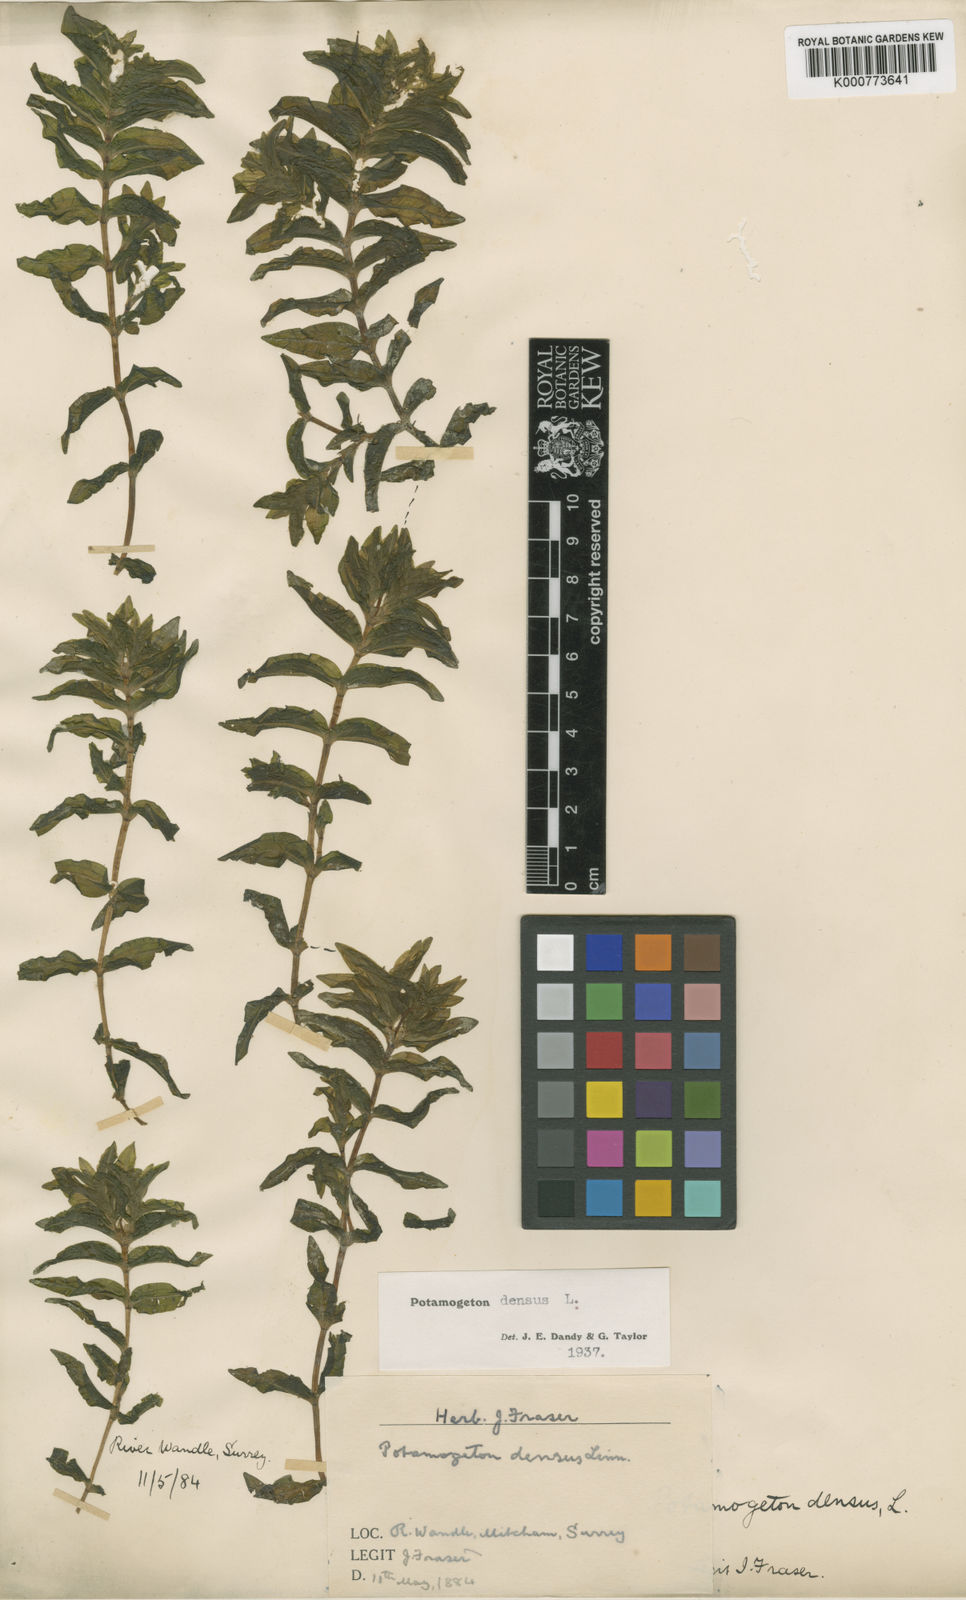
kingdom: Plantae
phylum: Tracheophyta
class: Liliopsida
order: Alismatales
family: Potamogetonaceae
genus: Groenlandia
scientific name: Groenlandia densa
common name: Opposite-leaved pondweed
